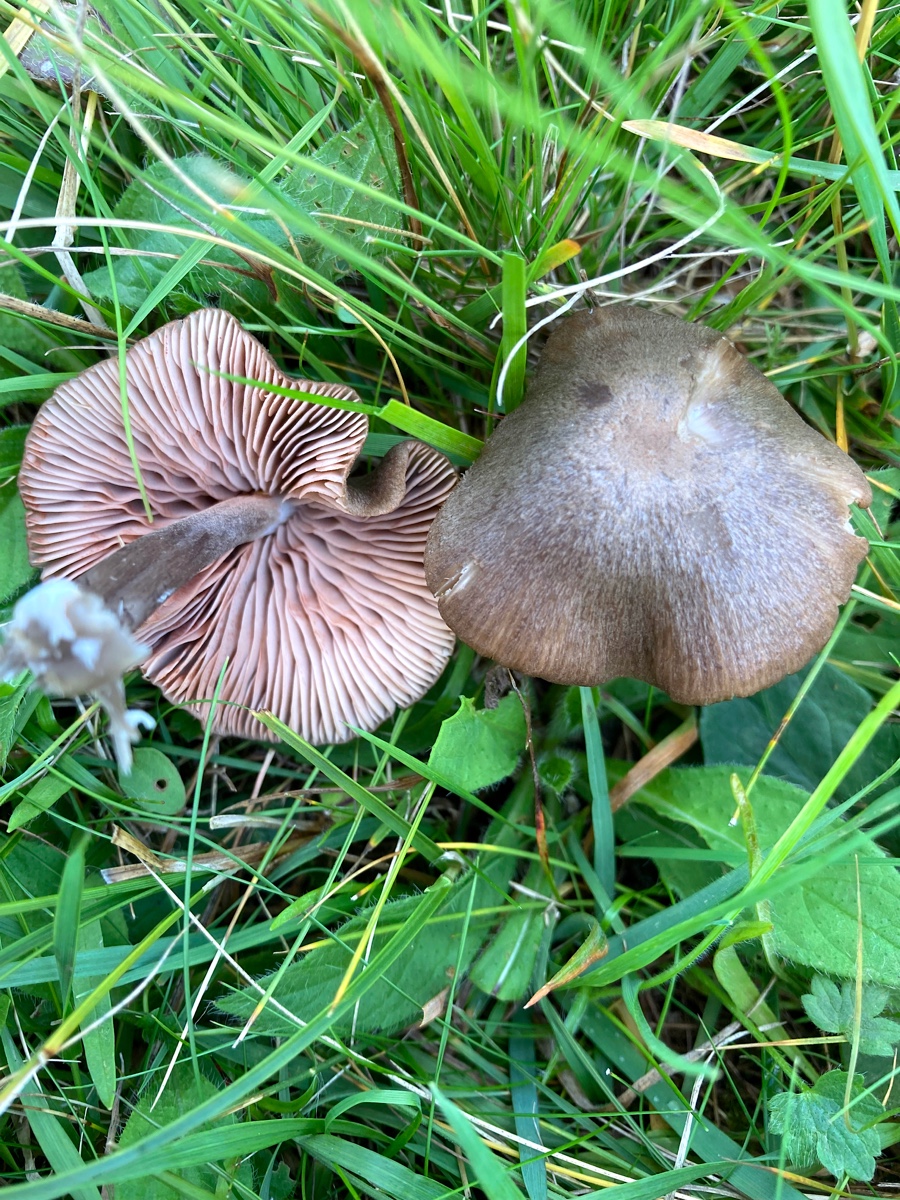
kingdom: Fungi
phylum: Basidiomycota
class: Agaricomycetes
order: Agaricales
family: Entolomataceae
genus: Entoloma
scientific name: Entoloma
